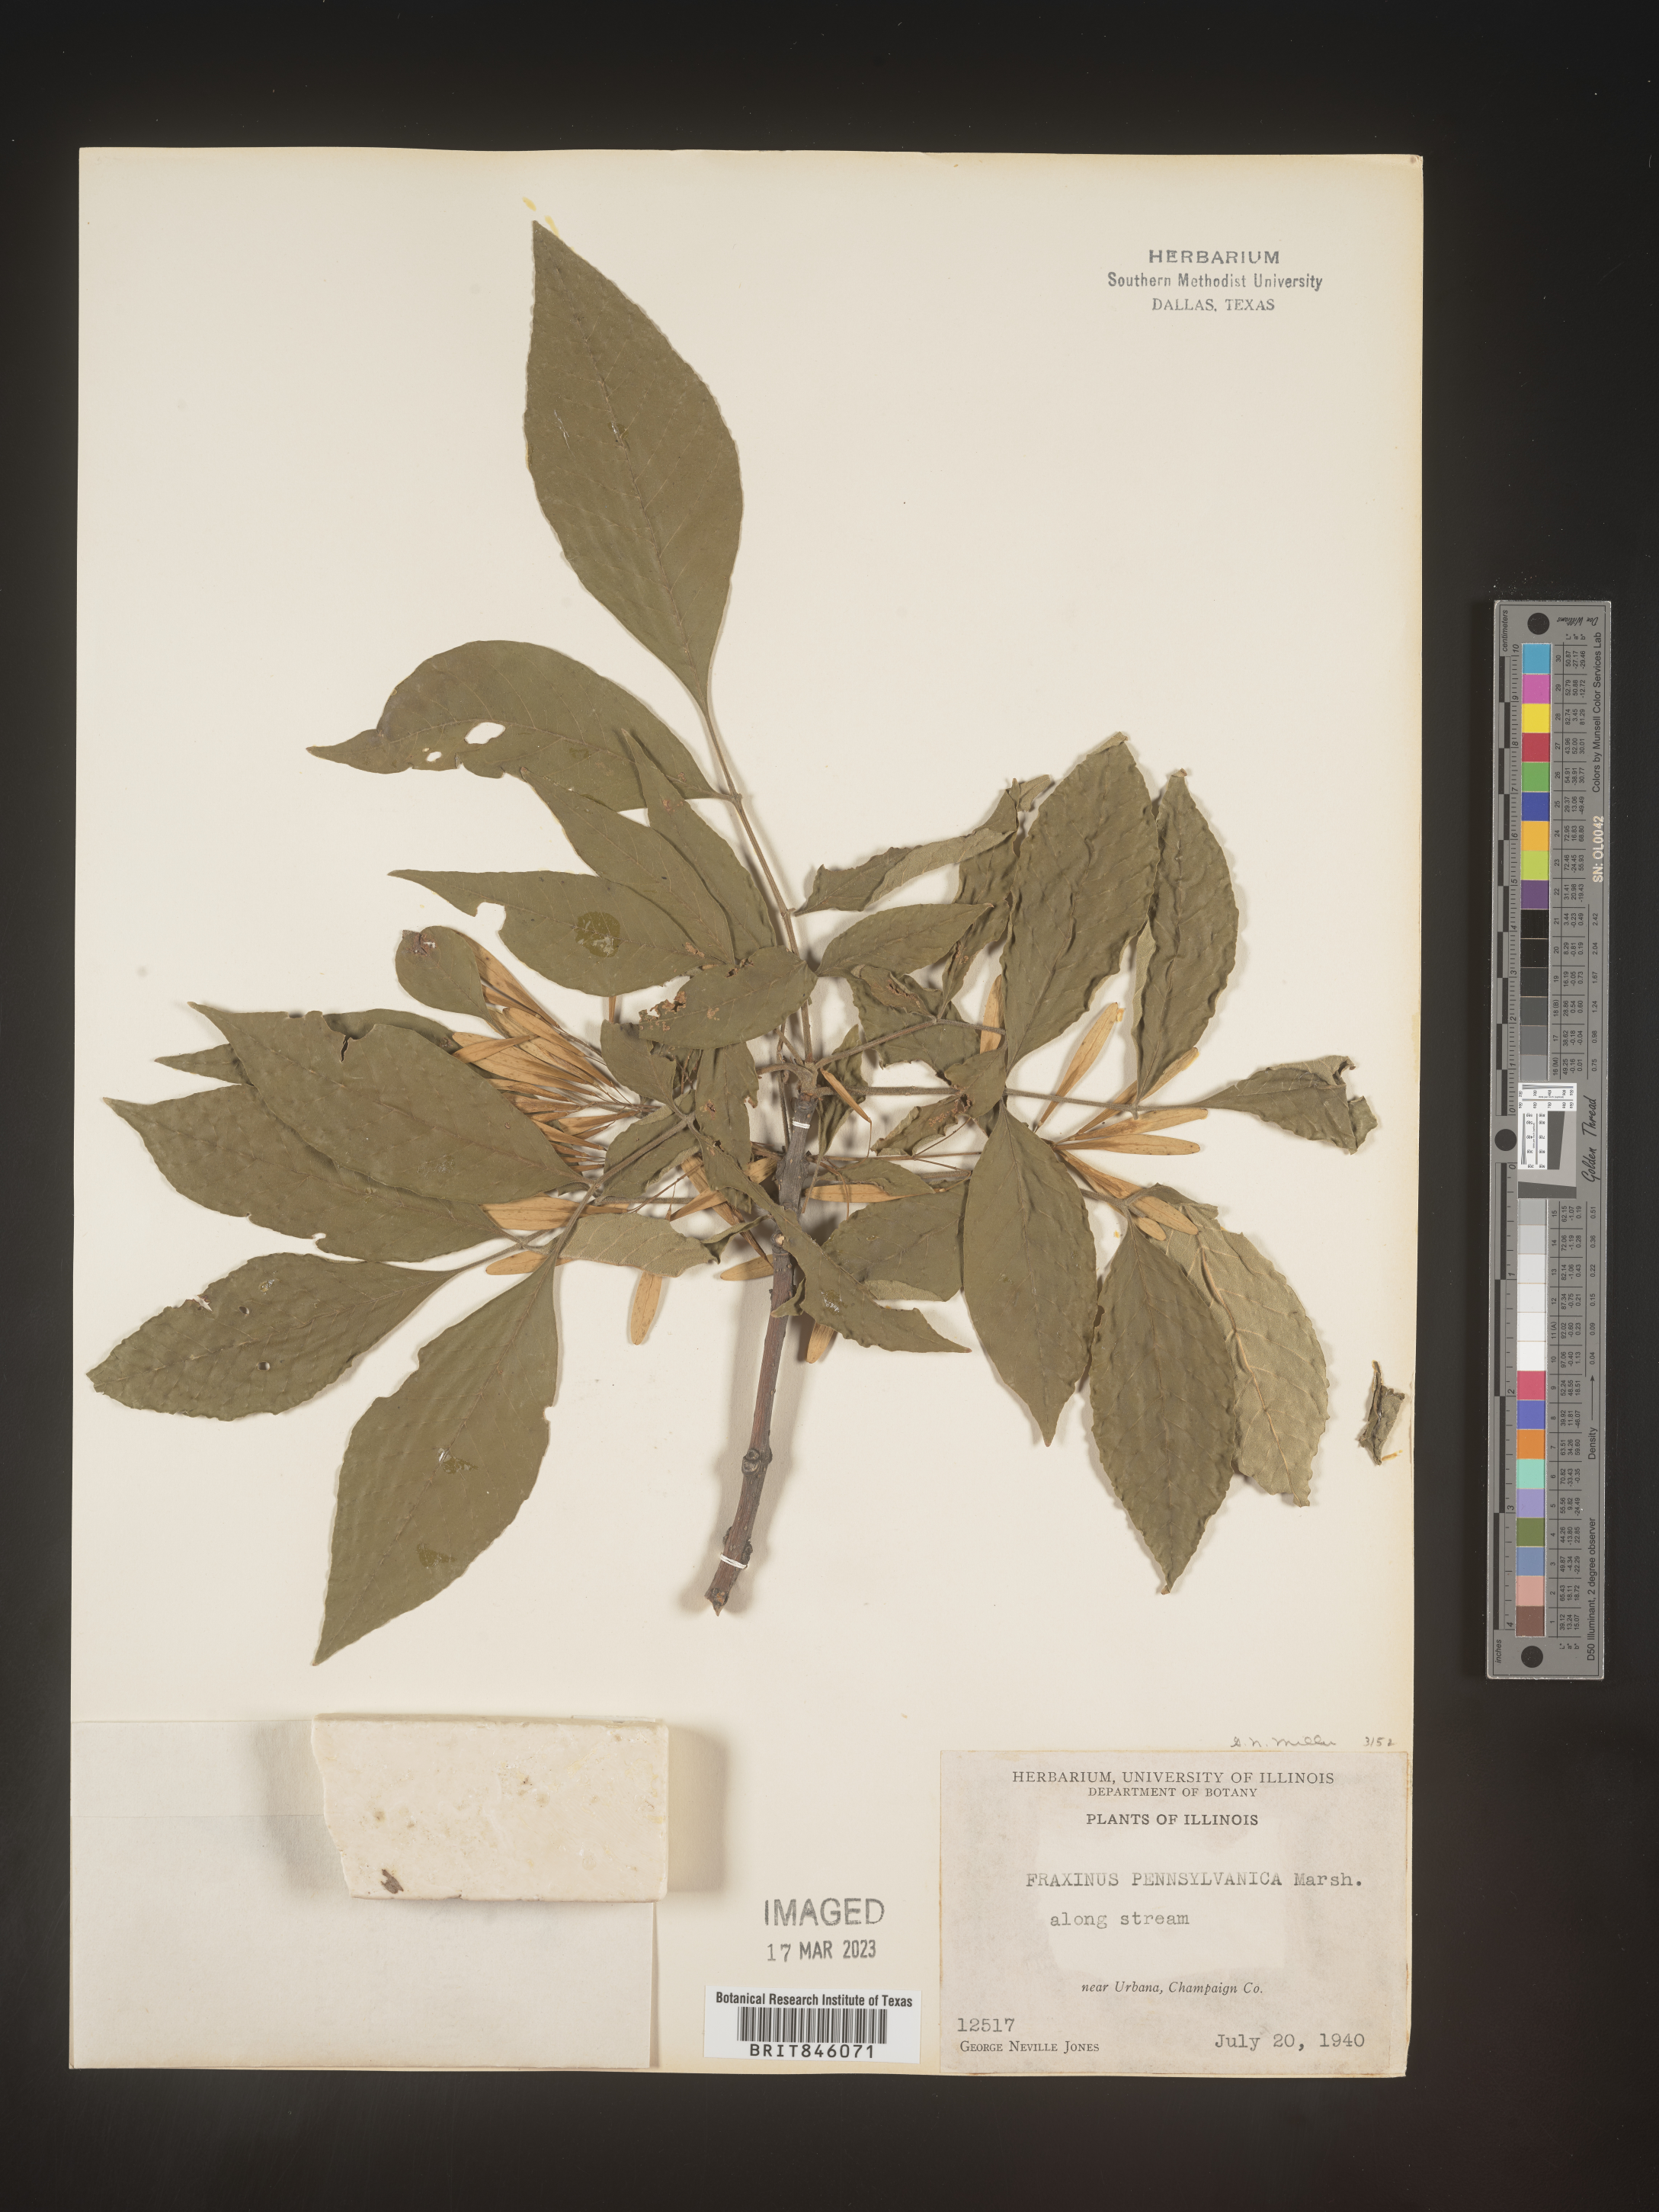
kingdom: Plantae
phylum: Tracheophyta
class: Magnoliopsida
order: Lamiales
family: Oleaceae
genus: Fraxinus
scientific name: Fraxinus pennsylvanica
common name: Green ash
